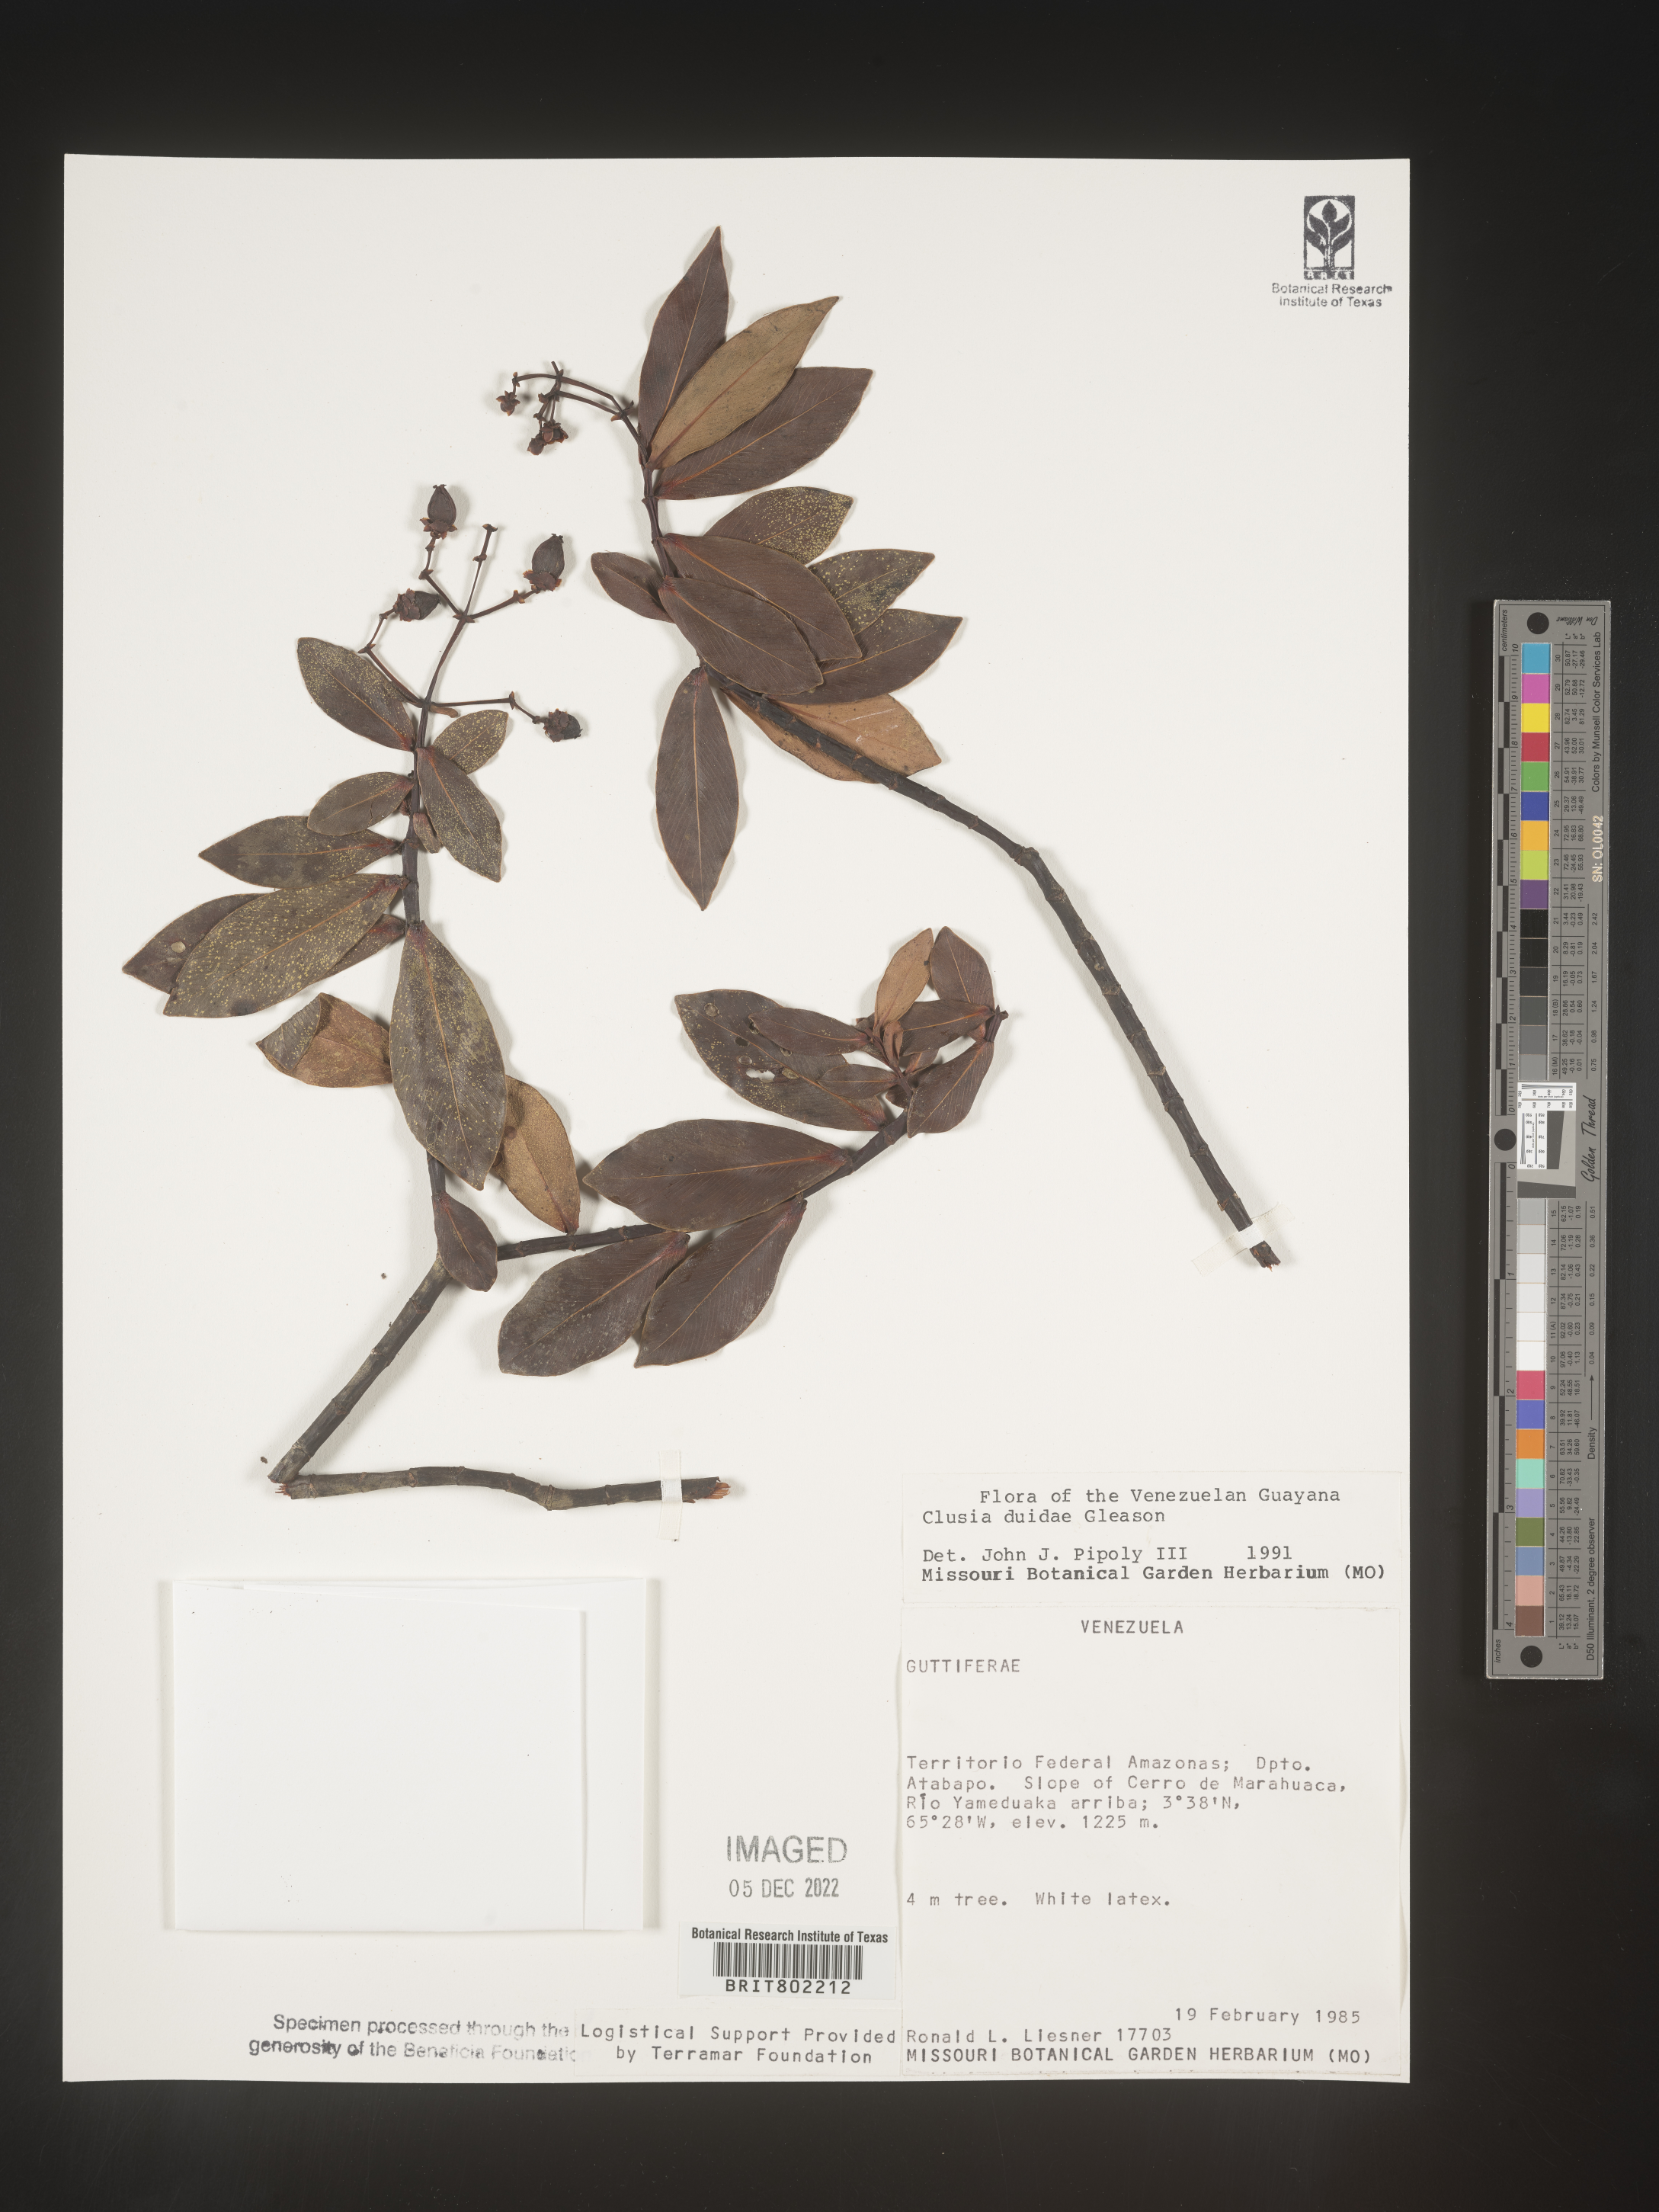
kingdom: Plantae
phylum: Tracheophyta
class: Magnoliopsida
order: Malpighiales
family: Clusiaceae
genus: Clusia
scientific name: Clusia
